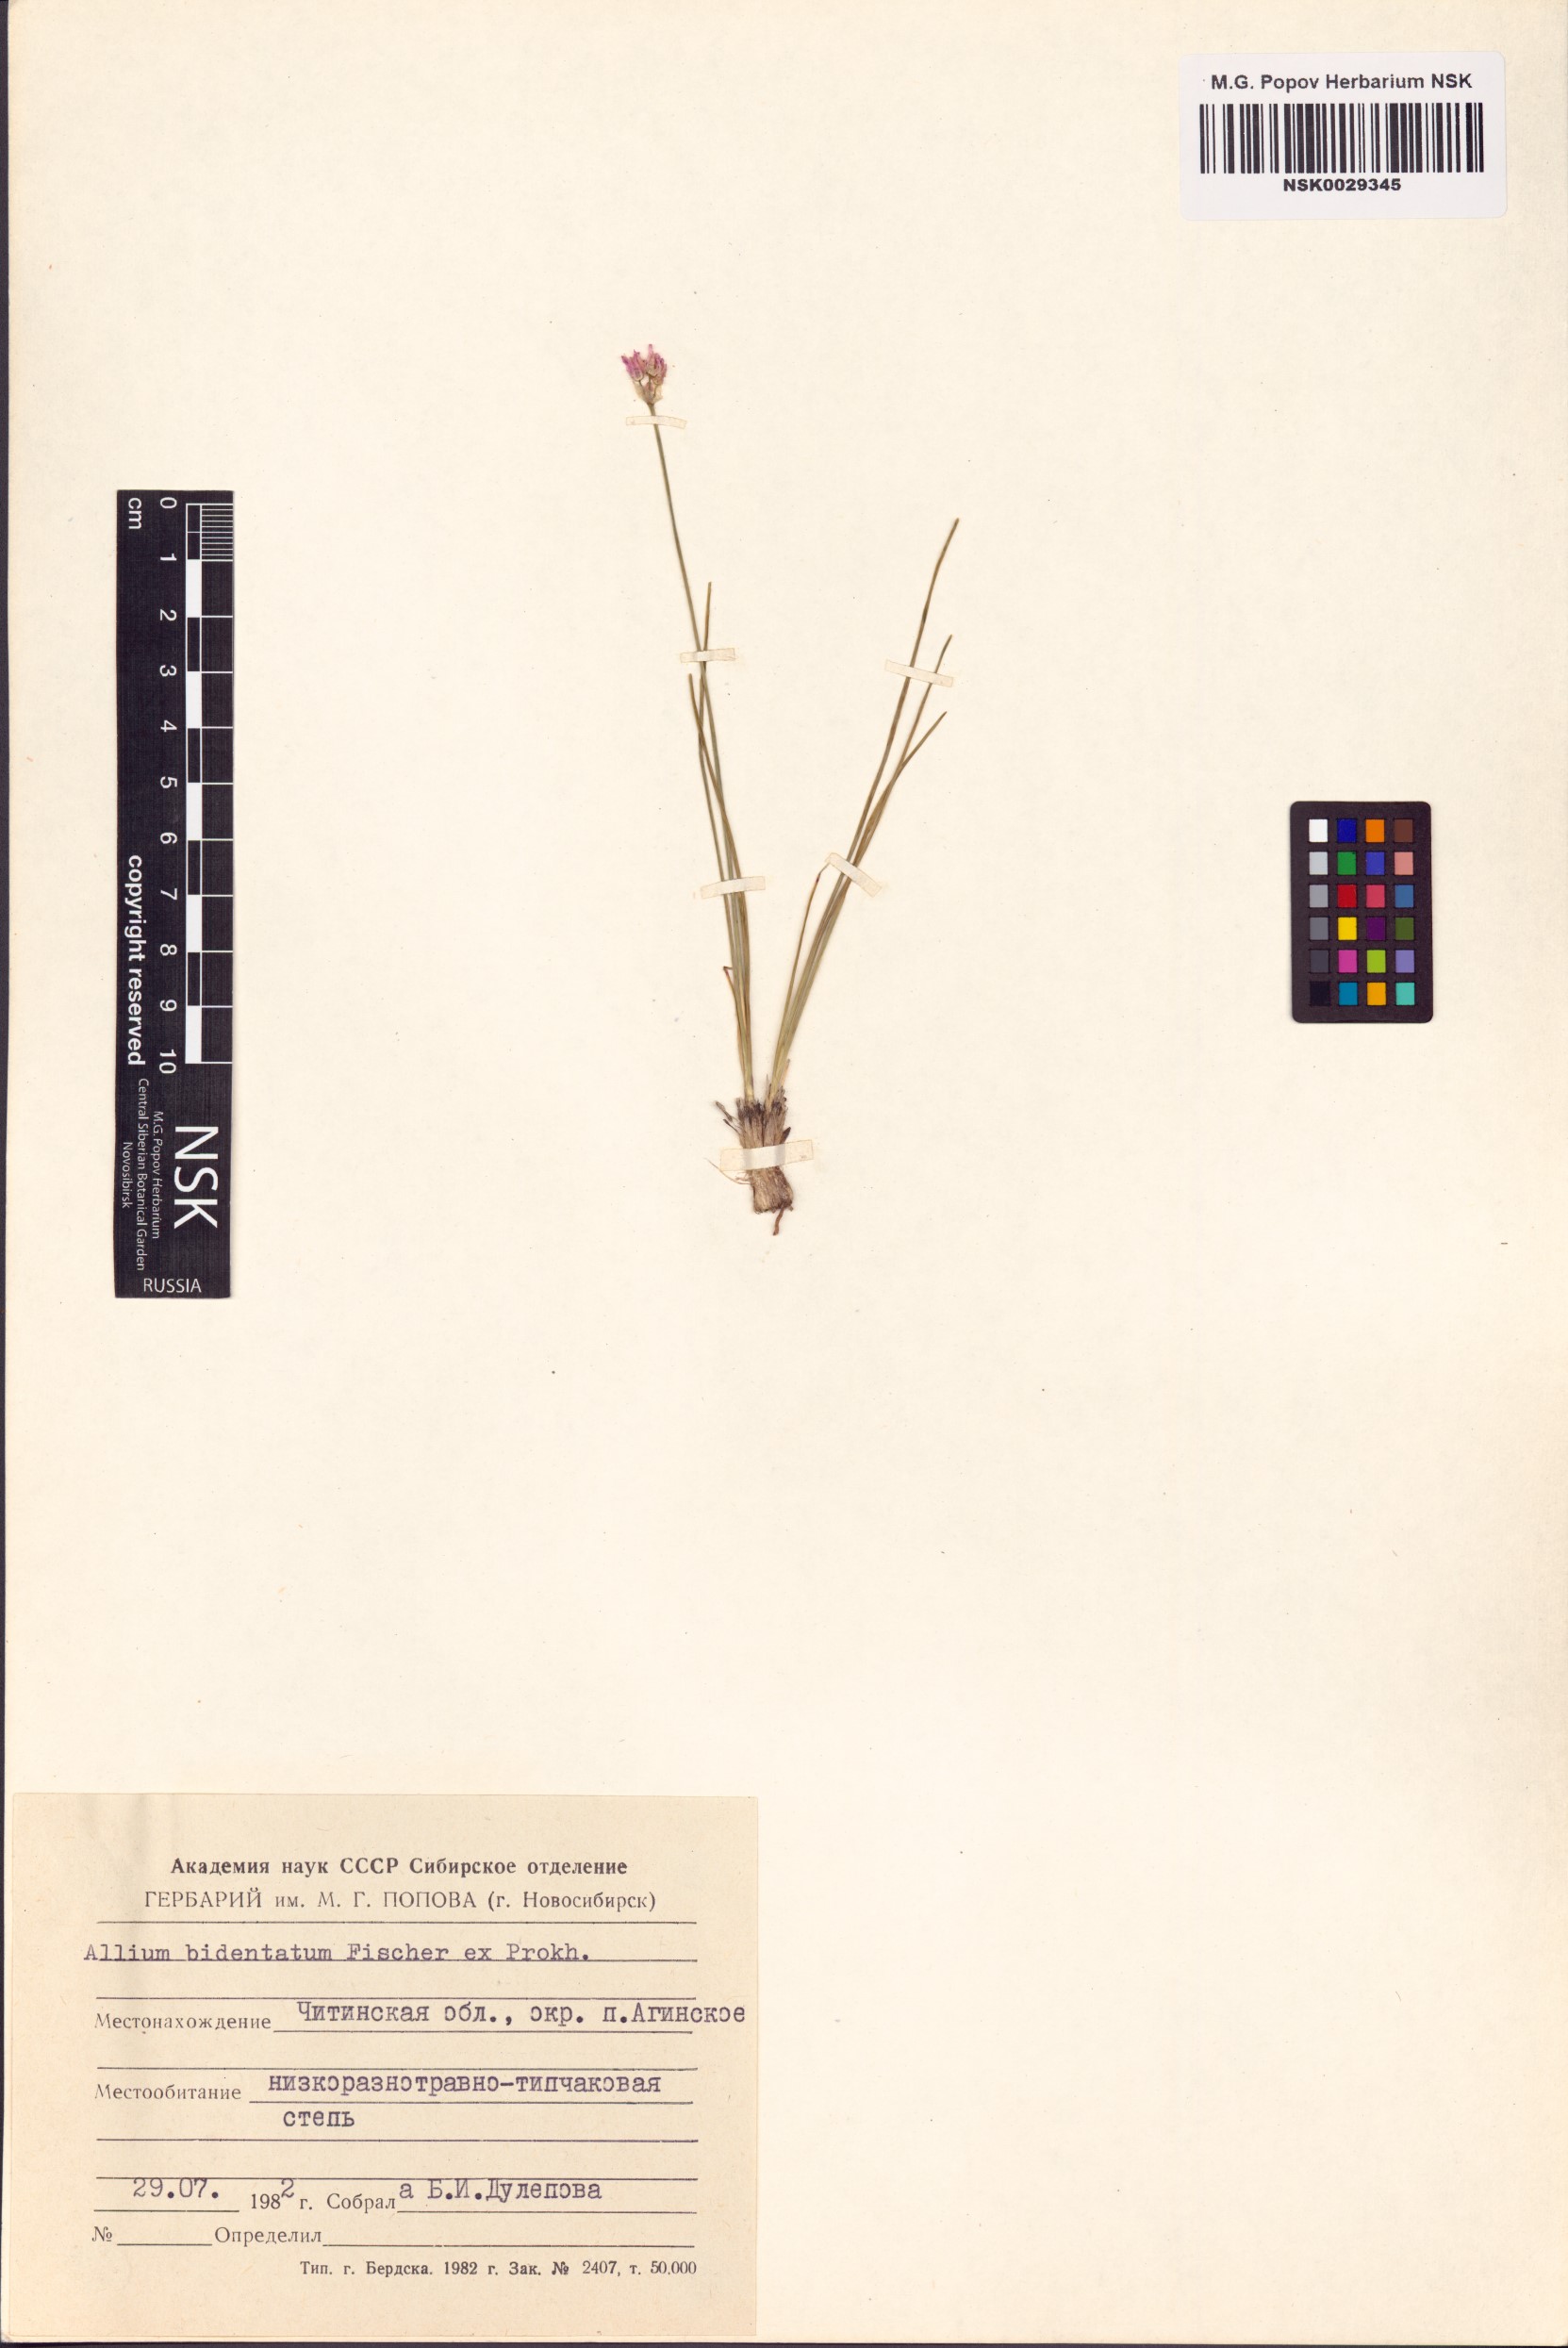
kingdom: Plantae
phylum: Tracheophyta
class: Liliopsida
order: Asparagales
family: Amaryllidaceae
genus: Allium
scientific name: Allium bidentatum
